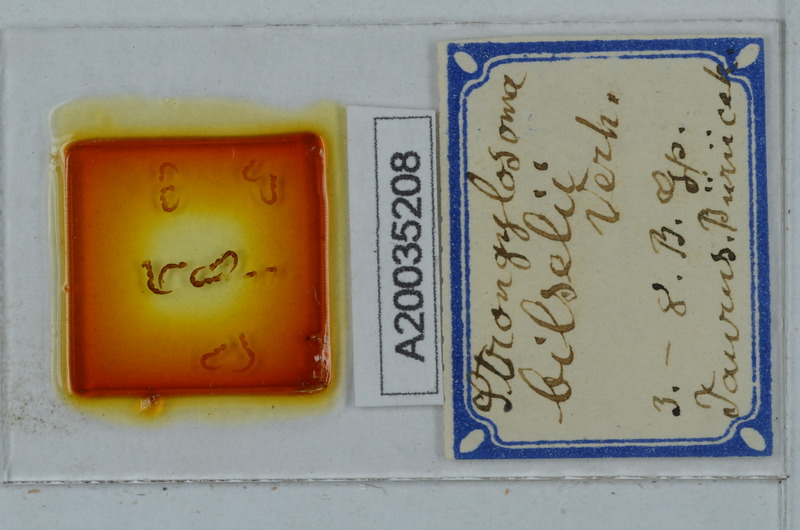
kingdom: Animalia
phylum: Arthropoda
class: Diplopoda
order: Polydesmida
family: Paradoxosomatidae
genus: Tetrarthrosoma
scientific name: Tetrarthrosoma bilselii
